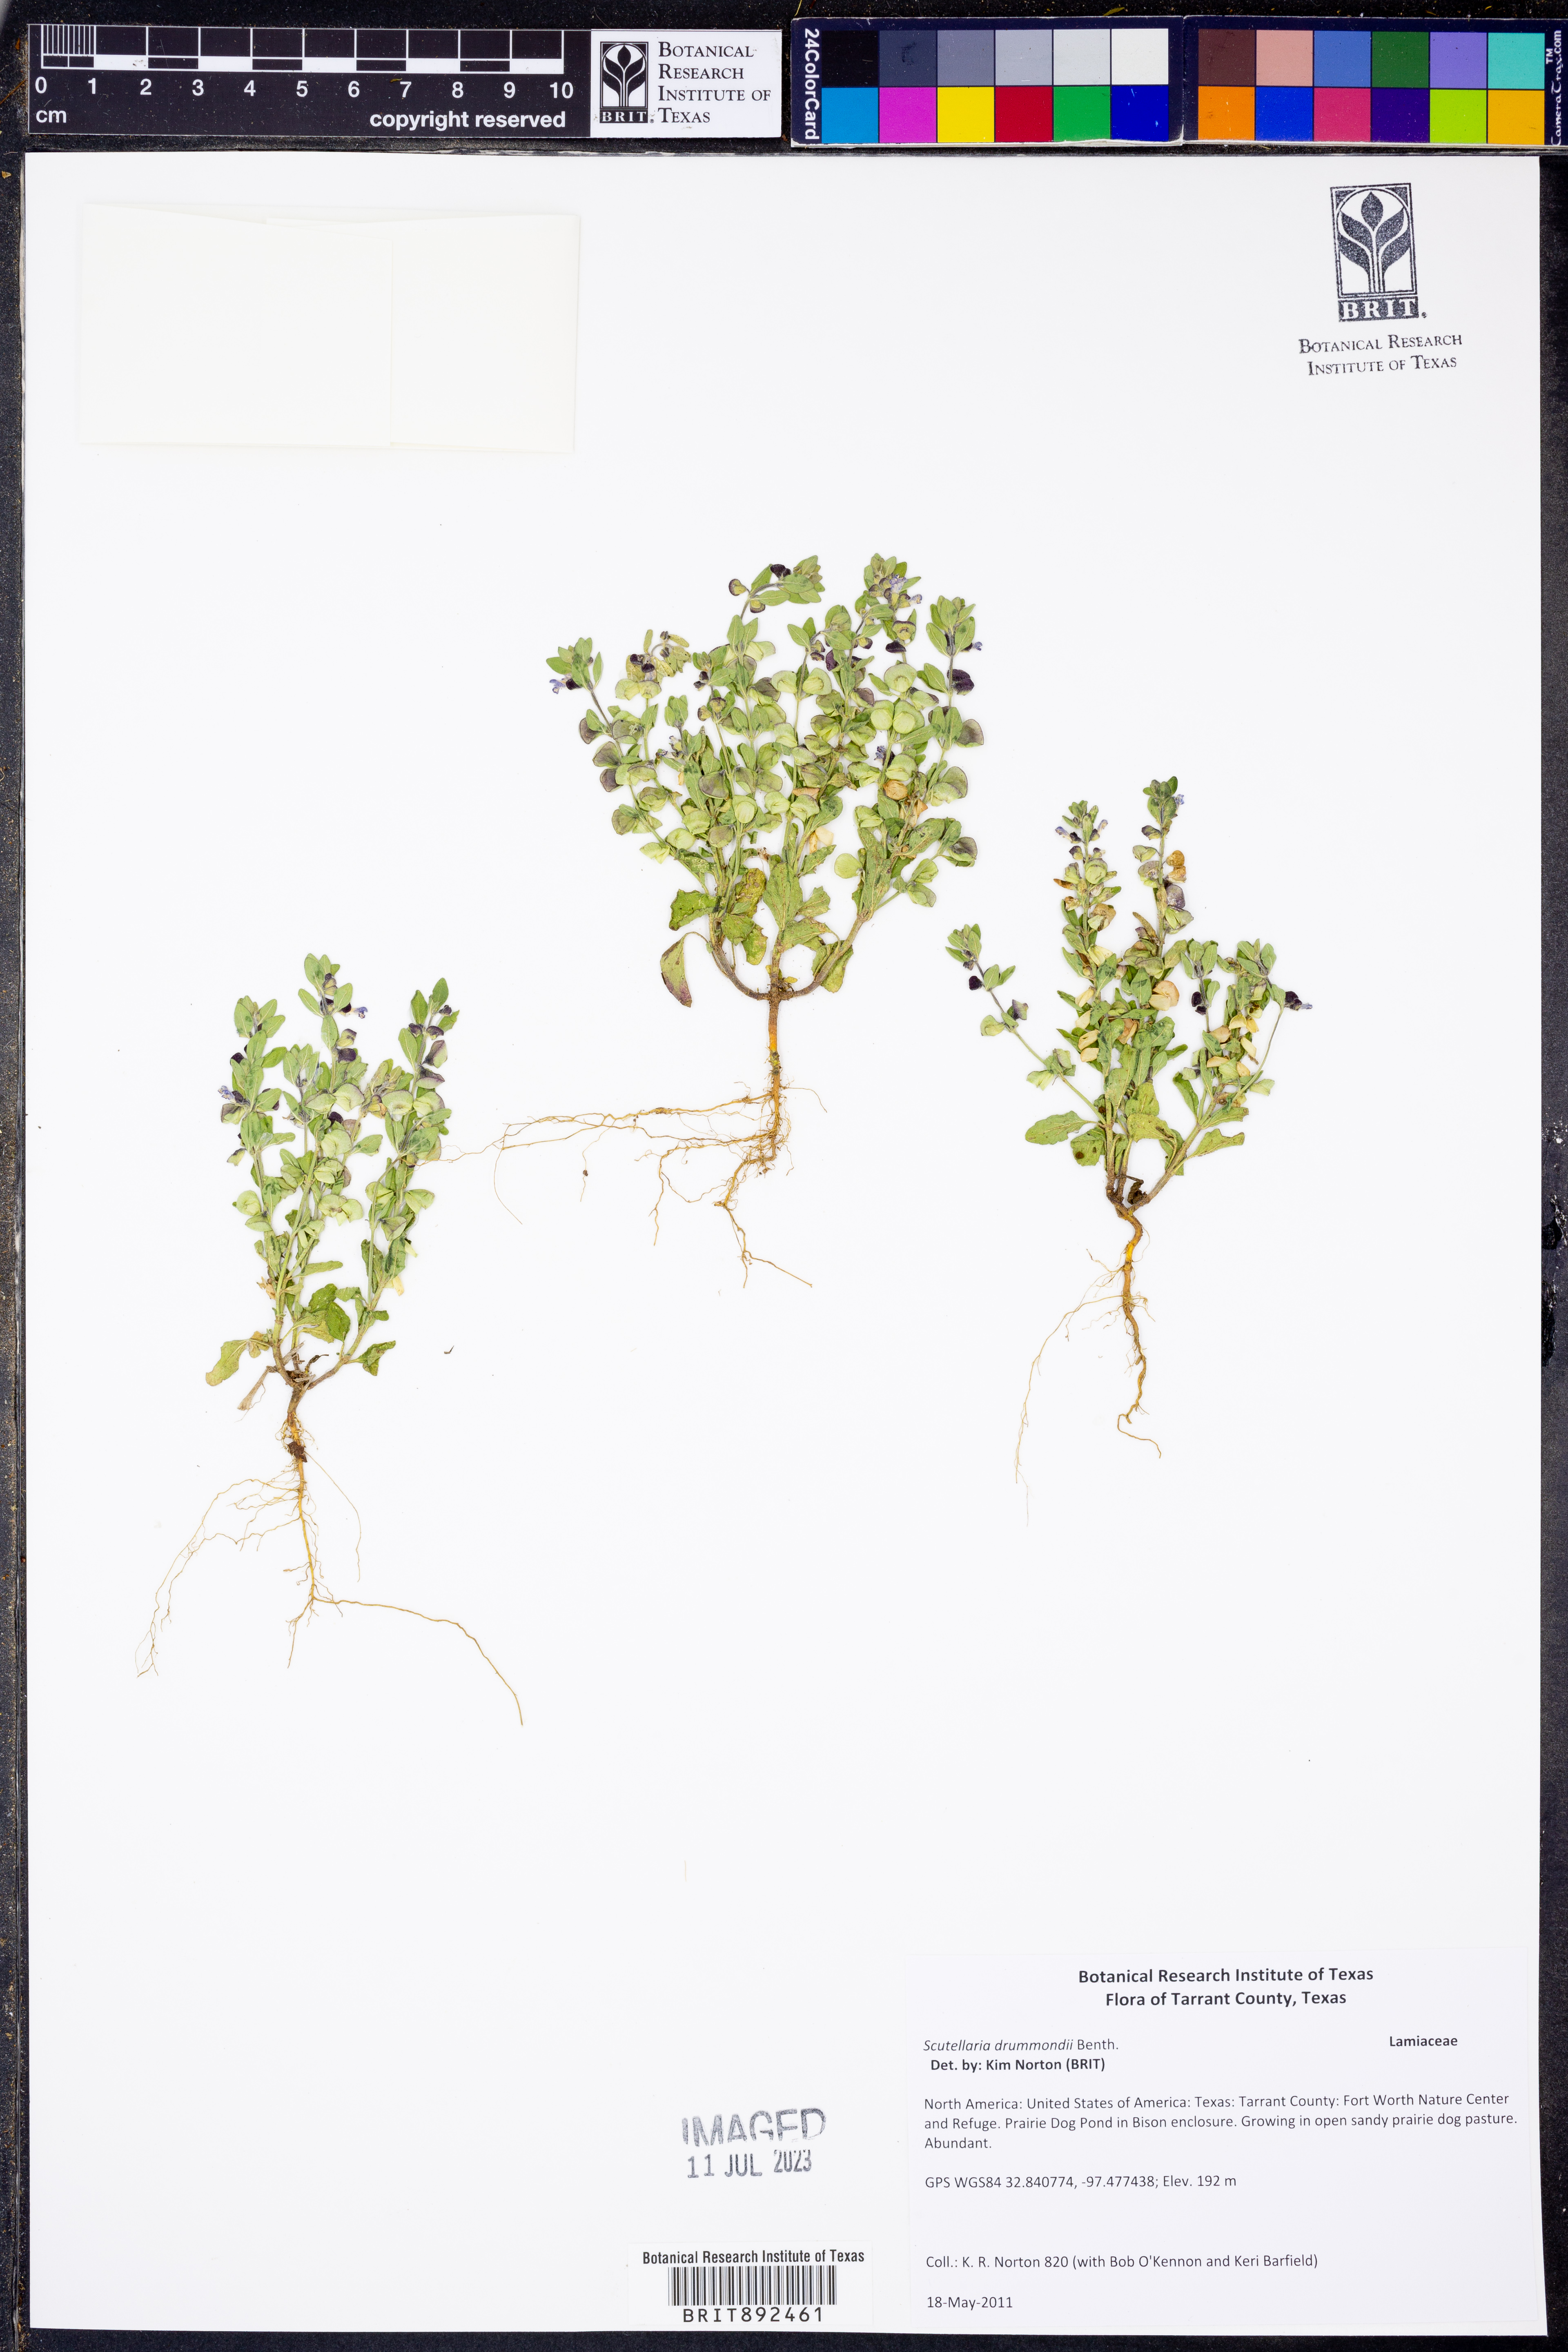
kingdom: Plantae
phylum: Tracheophyta
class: Magnoliopsida
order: Lamiales
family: Lamiaceae
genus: Scutellaria
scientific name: Scutellaria drummondii
